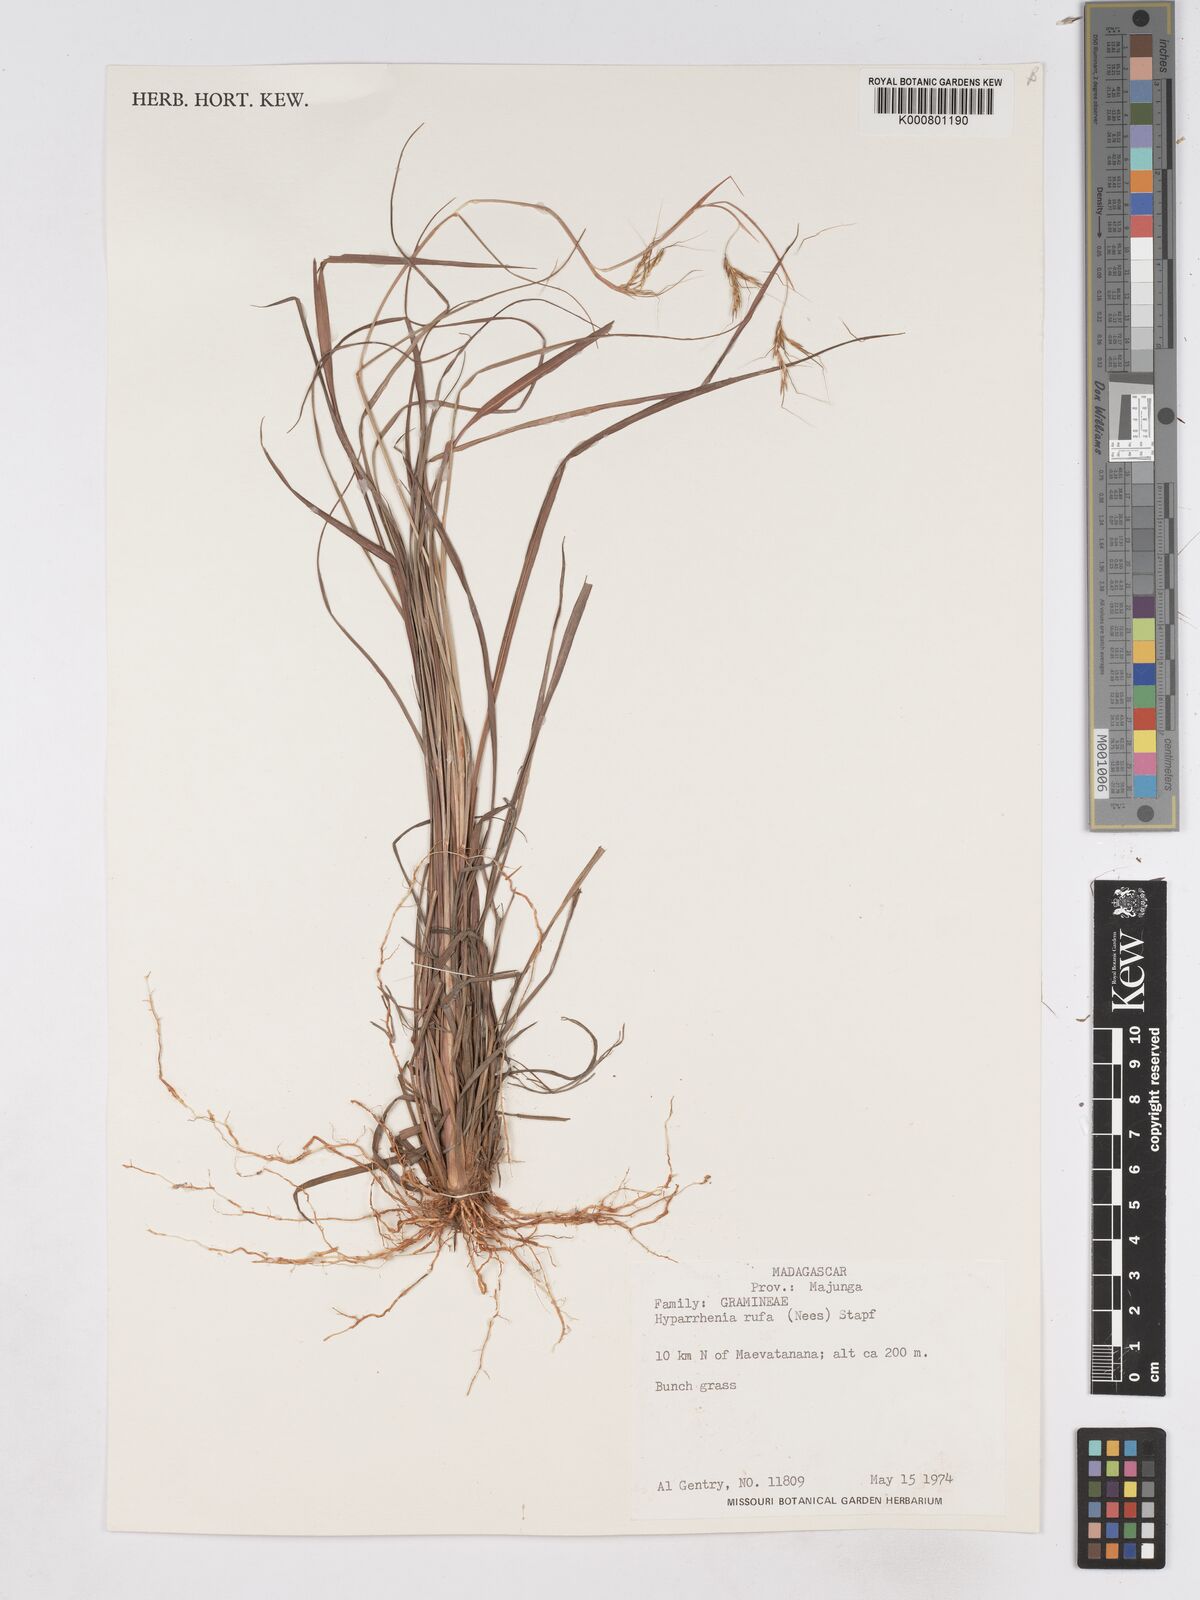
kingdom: Plantae
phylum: Tracheophyta
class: Liliopsida
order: Poales
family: Poaceae
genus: Hyparrhenia
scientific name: Hyparrhenia rufa
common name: Jaraguagrass
